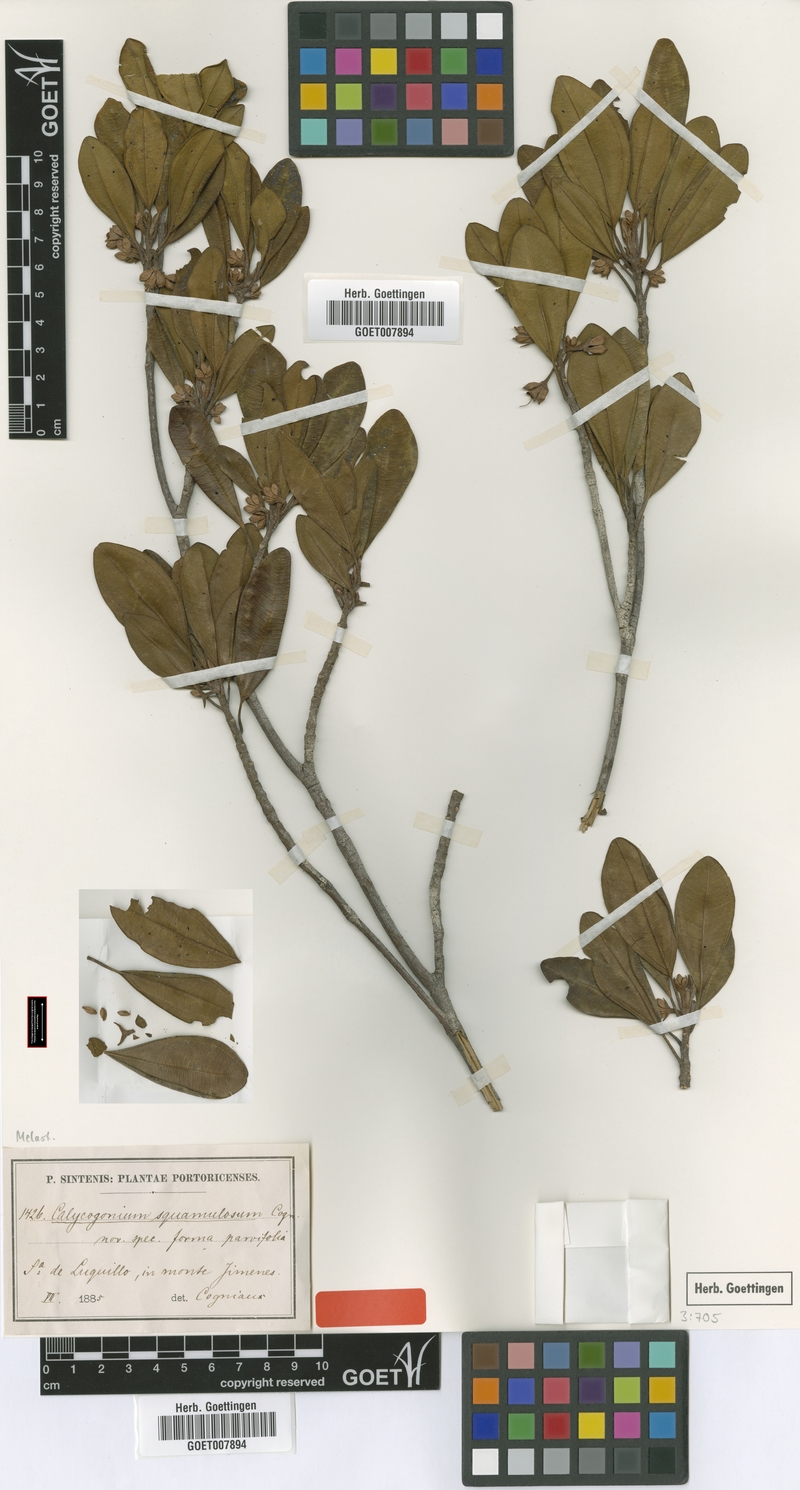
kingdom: Plantae
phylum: Tracheophyta
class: Magnoliopsida
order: Myrtales
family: Melastomataceae
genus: Henriettea
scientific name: Henriettea squamulosa
